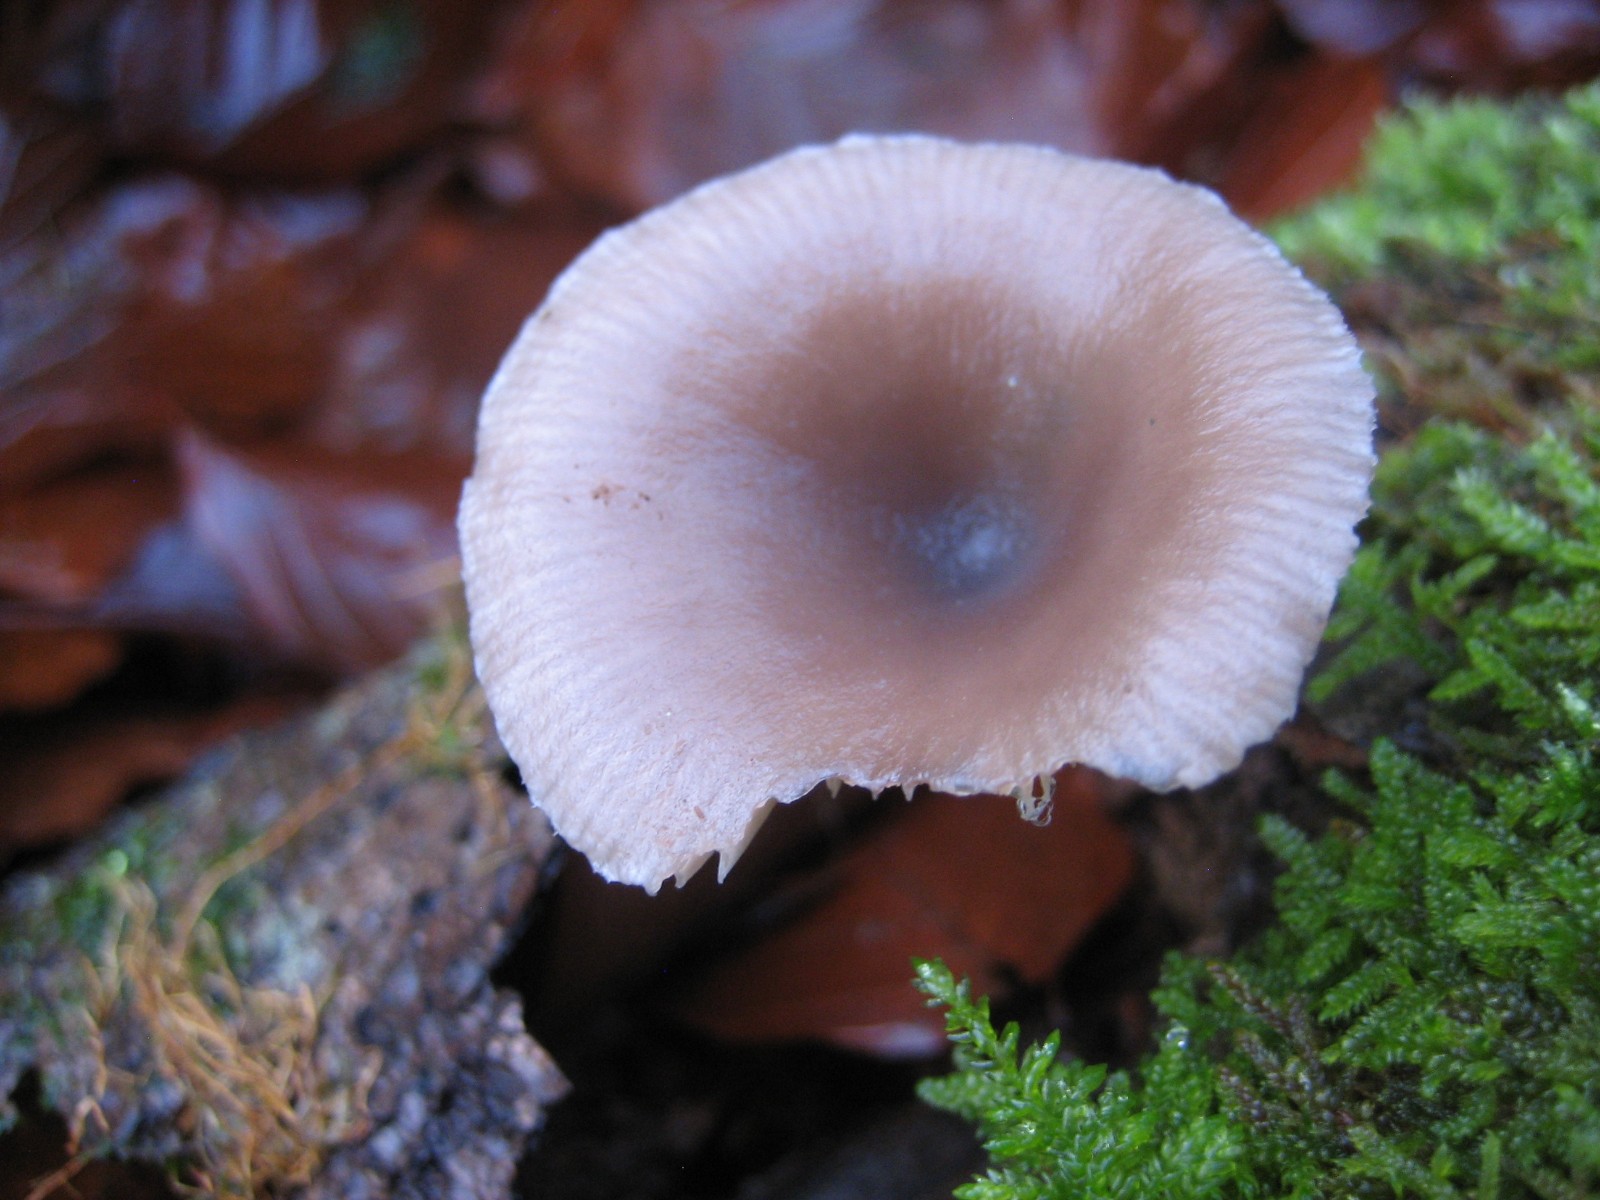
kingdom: Fungi
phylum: Basidiomycota
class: Agaricomycetes
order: Agaricales
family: Pseudoclitocybaceae
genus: Pseudoclitocybe
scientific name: Pseudoclitocybe cyathiformis
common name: almindelig bægertragthat
